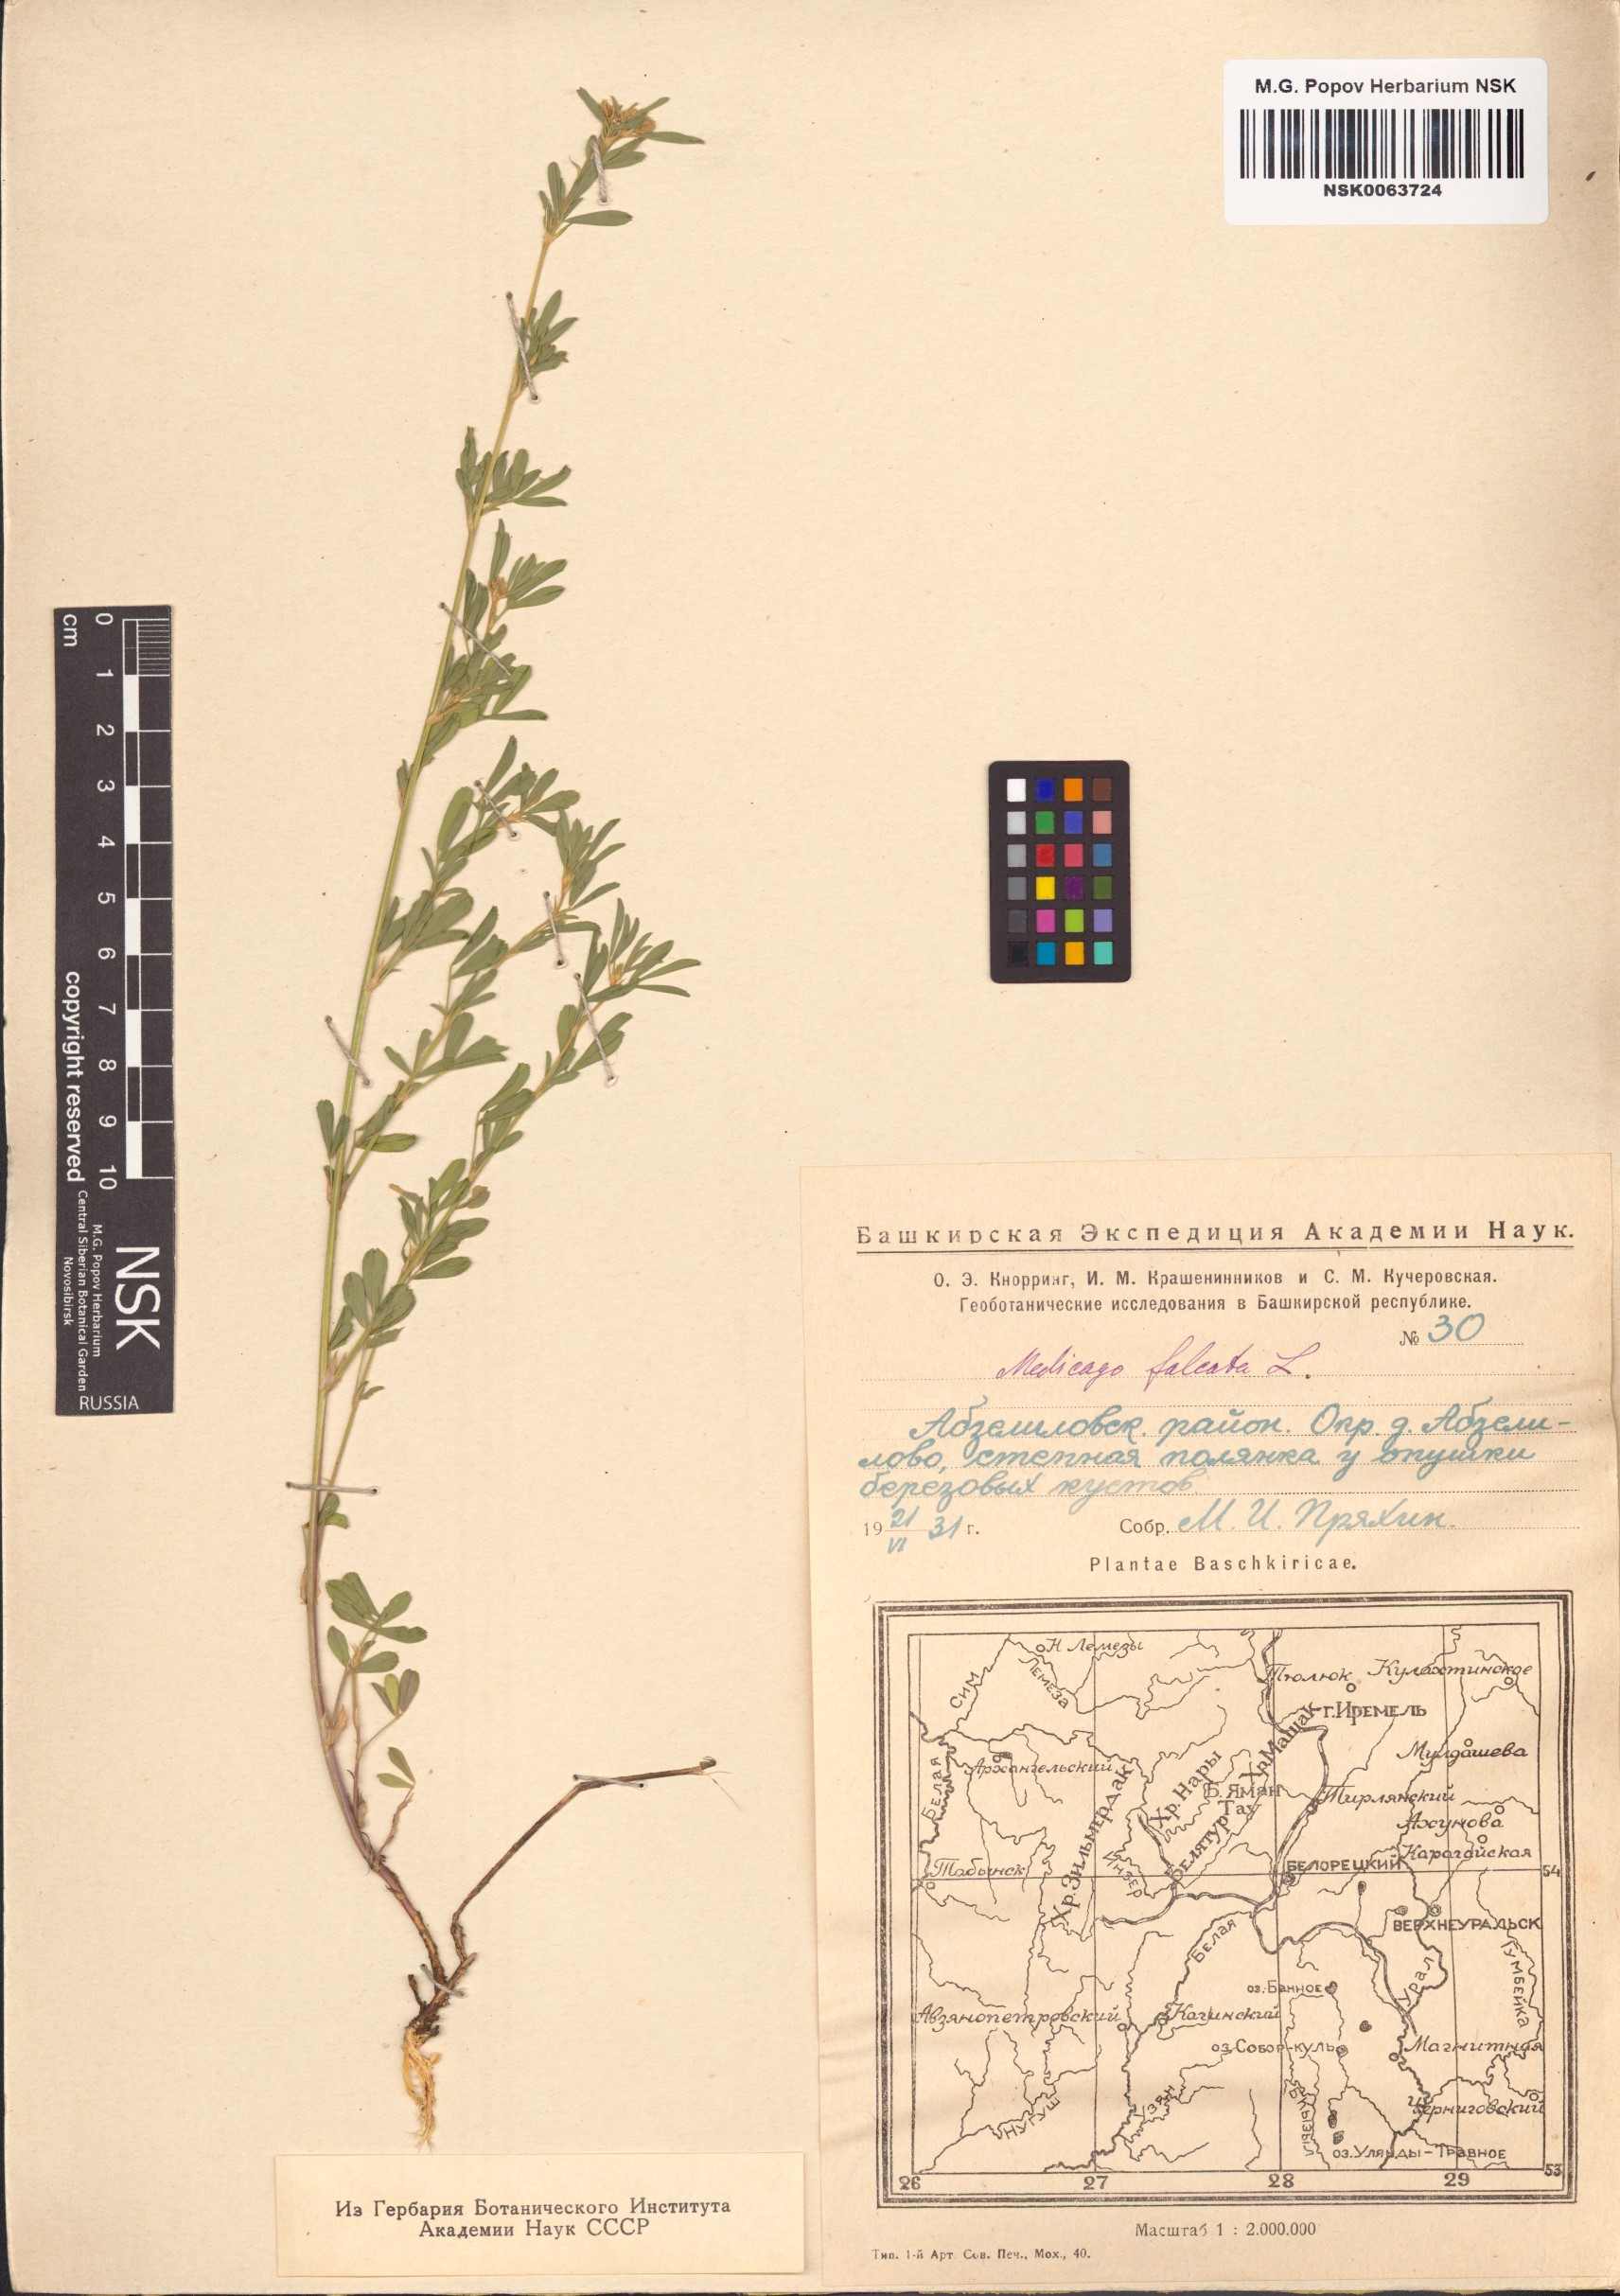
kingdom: Plantae
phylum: Tracheophyta
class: Magnoliopsida
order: Fabales
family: Fabaceae
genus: Medicago
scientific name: Medicago falcata
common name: Sickle medick
